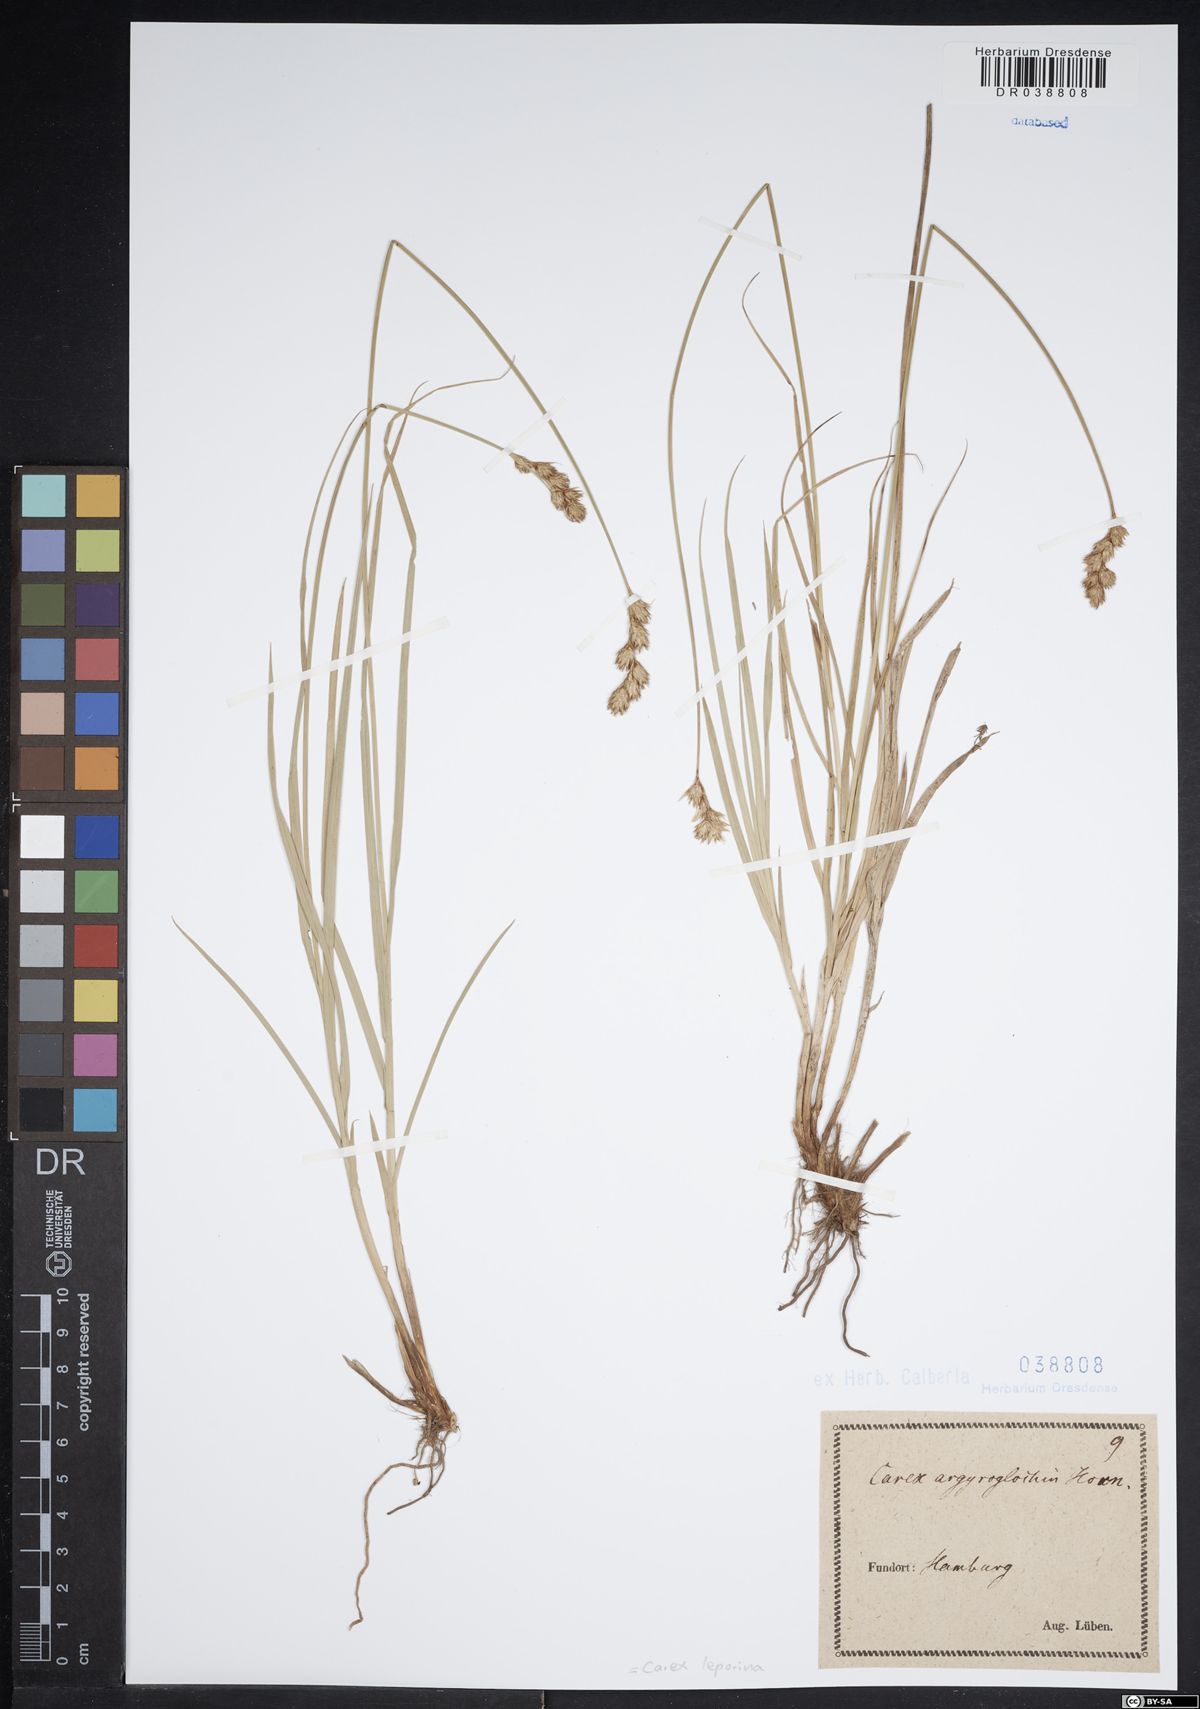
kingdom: Plantae
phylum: Tracheophyta
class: Liliopsida
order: Poales
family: Cyperaceae
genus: Carex
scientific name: Carex leporina
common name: Oval sedge
